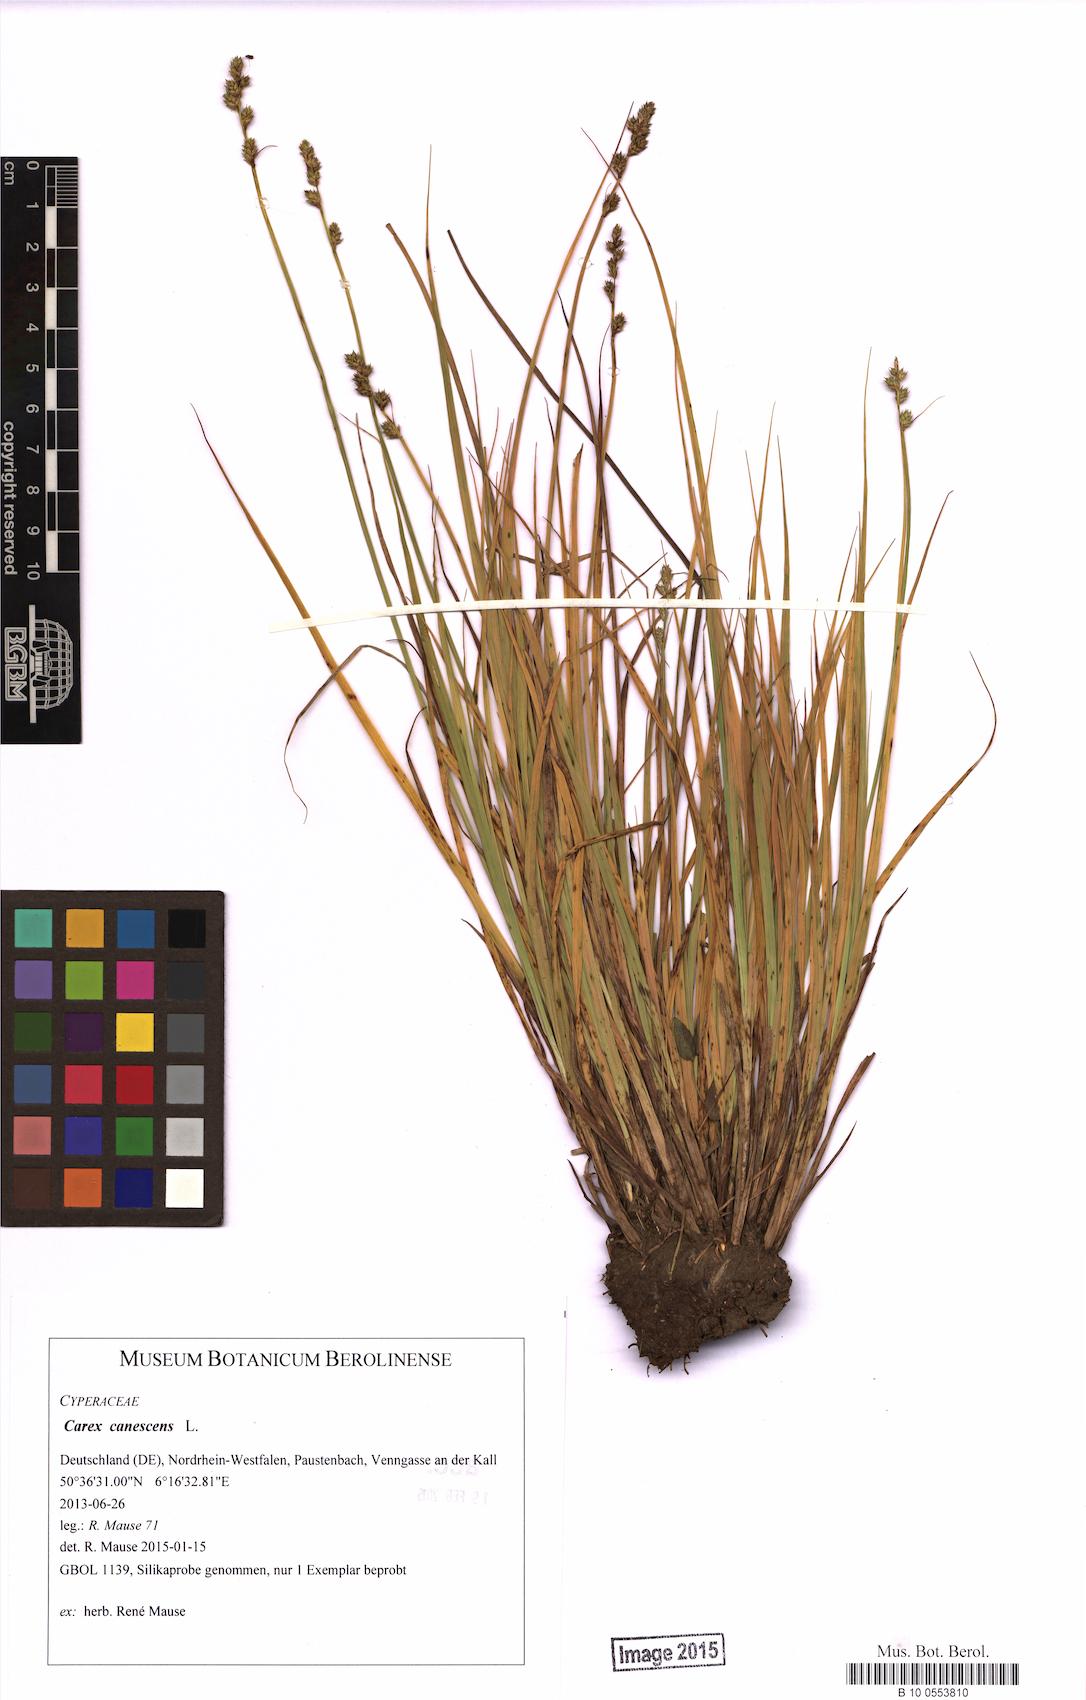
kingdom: Plantae
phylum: Tracheophyta
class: Liliopsida
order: Poales
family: Cyperaceae
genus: Carex
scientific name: Carex canescens
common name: White sedge
